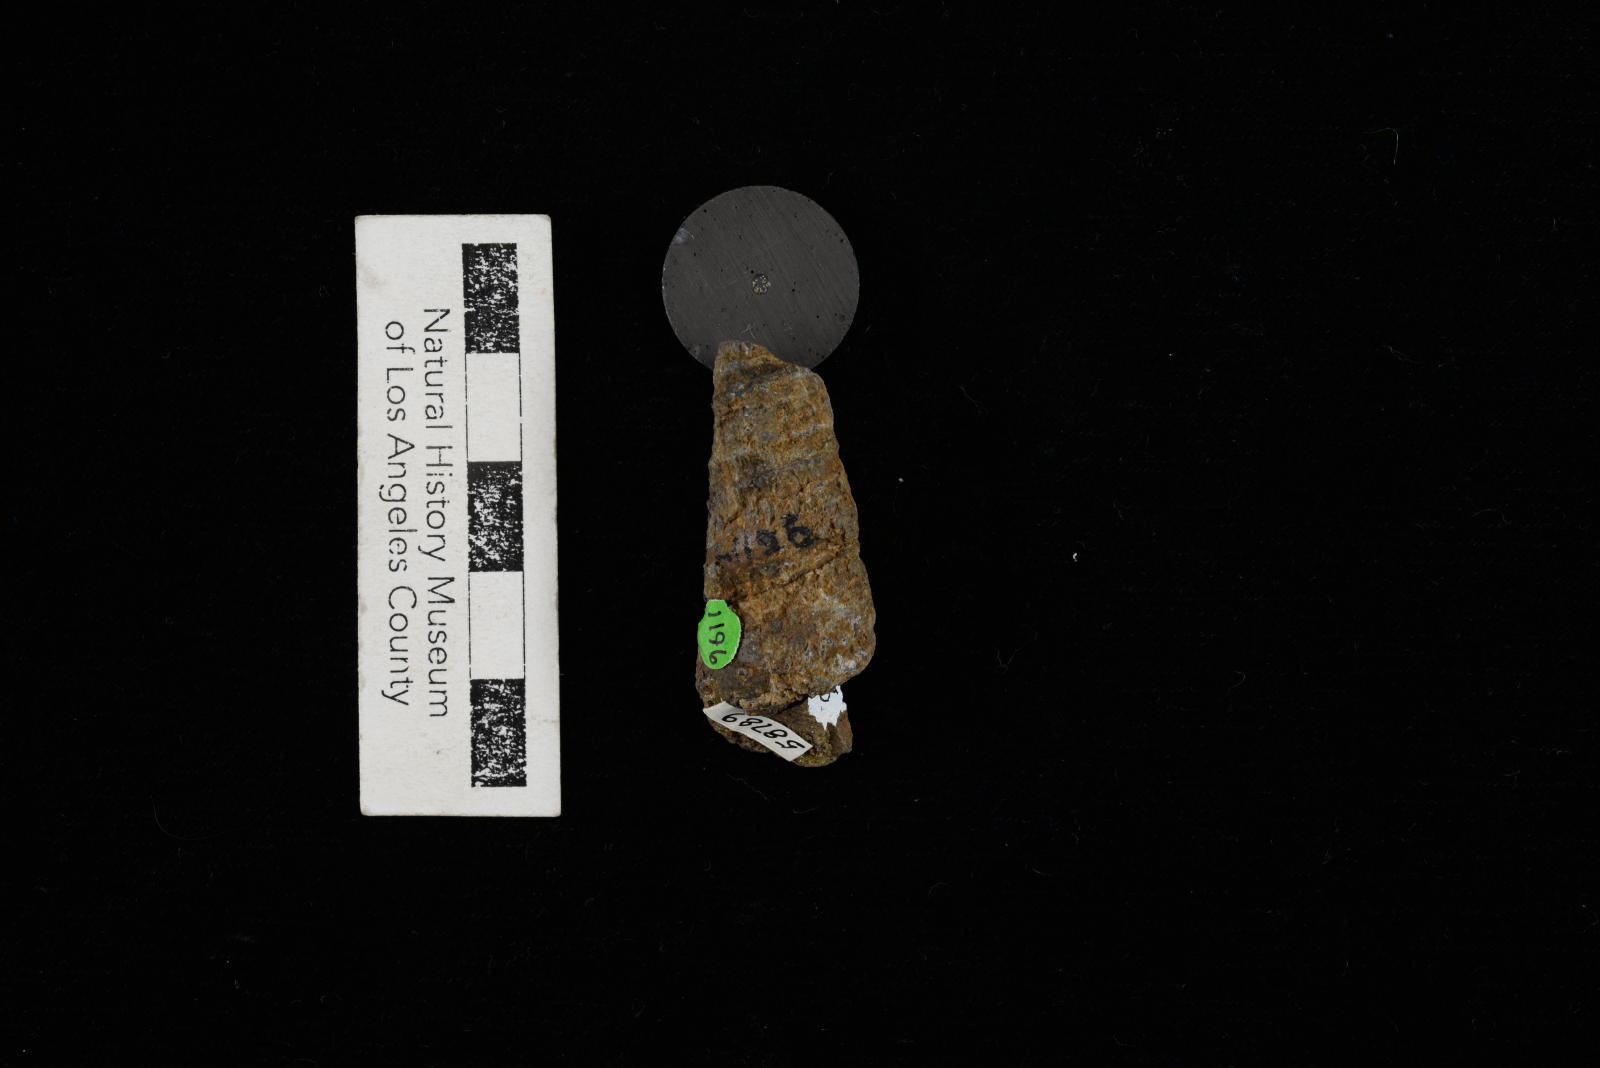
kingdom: Animalia
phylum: Mollusca
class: Gastropoda
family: Turritellidae
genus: Turritella
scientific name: Turritella
